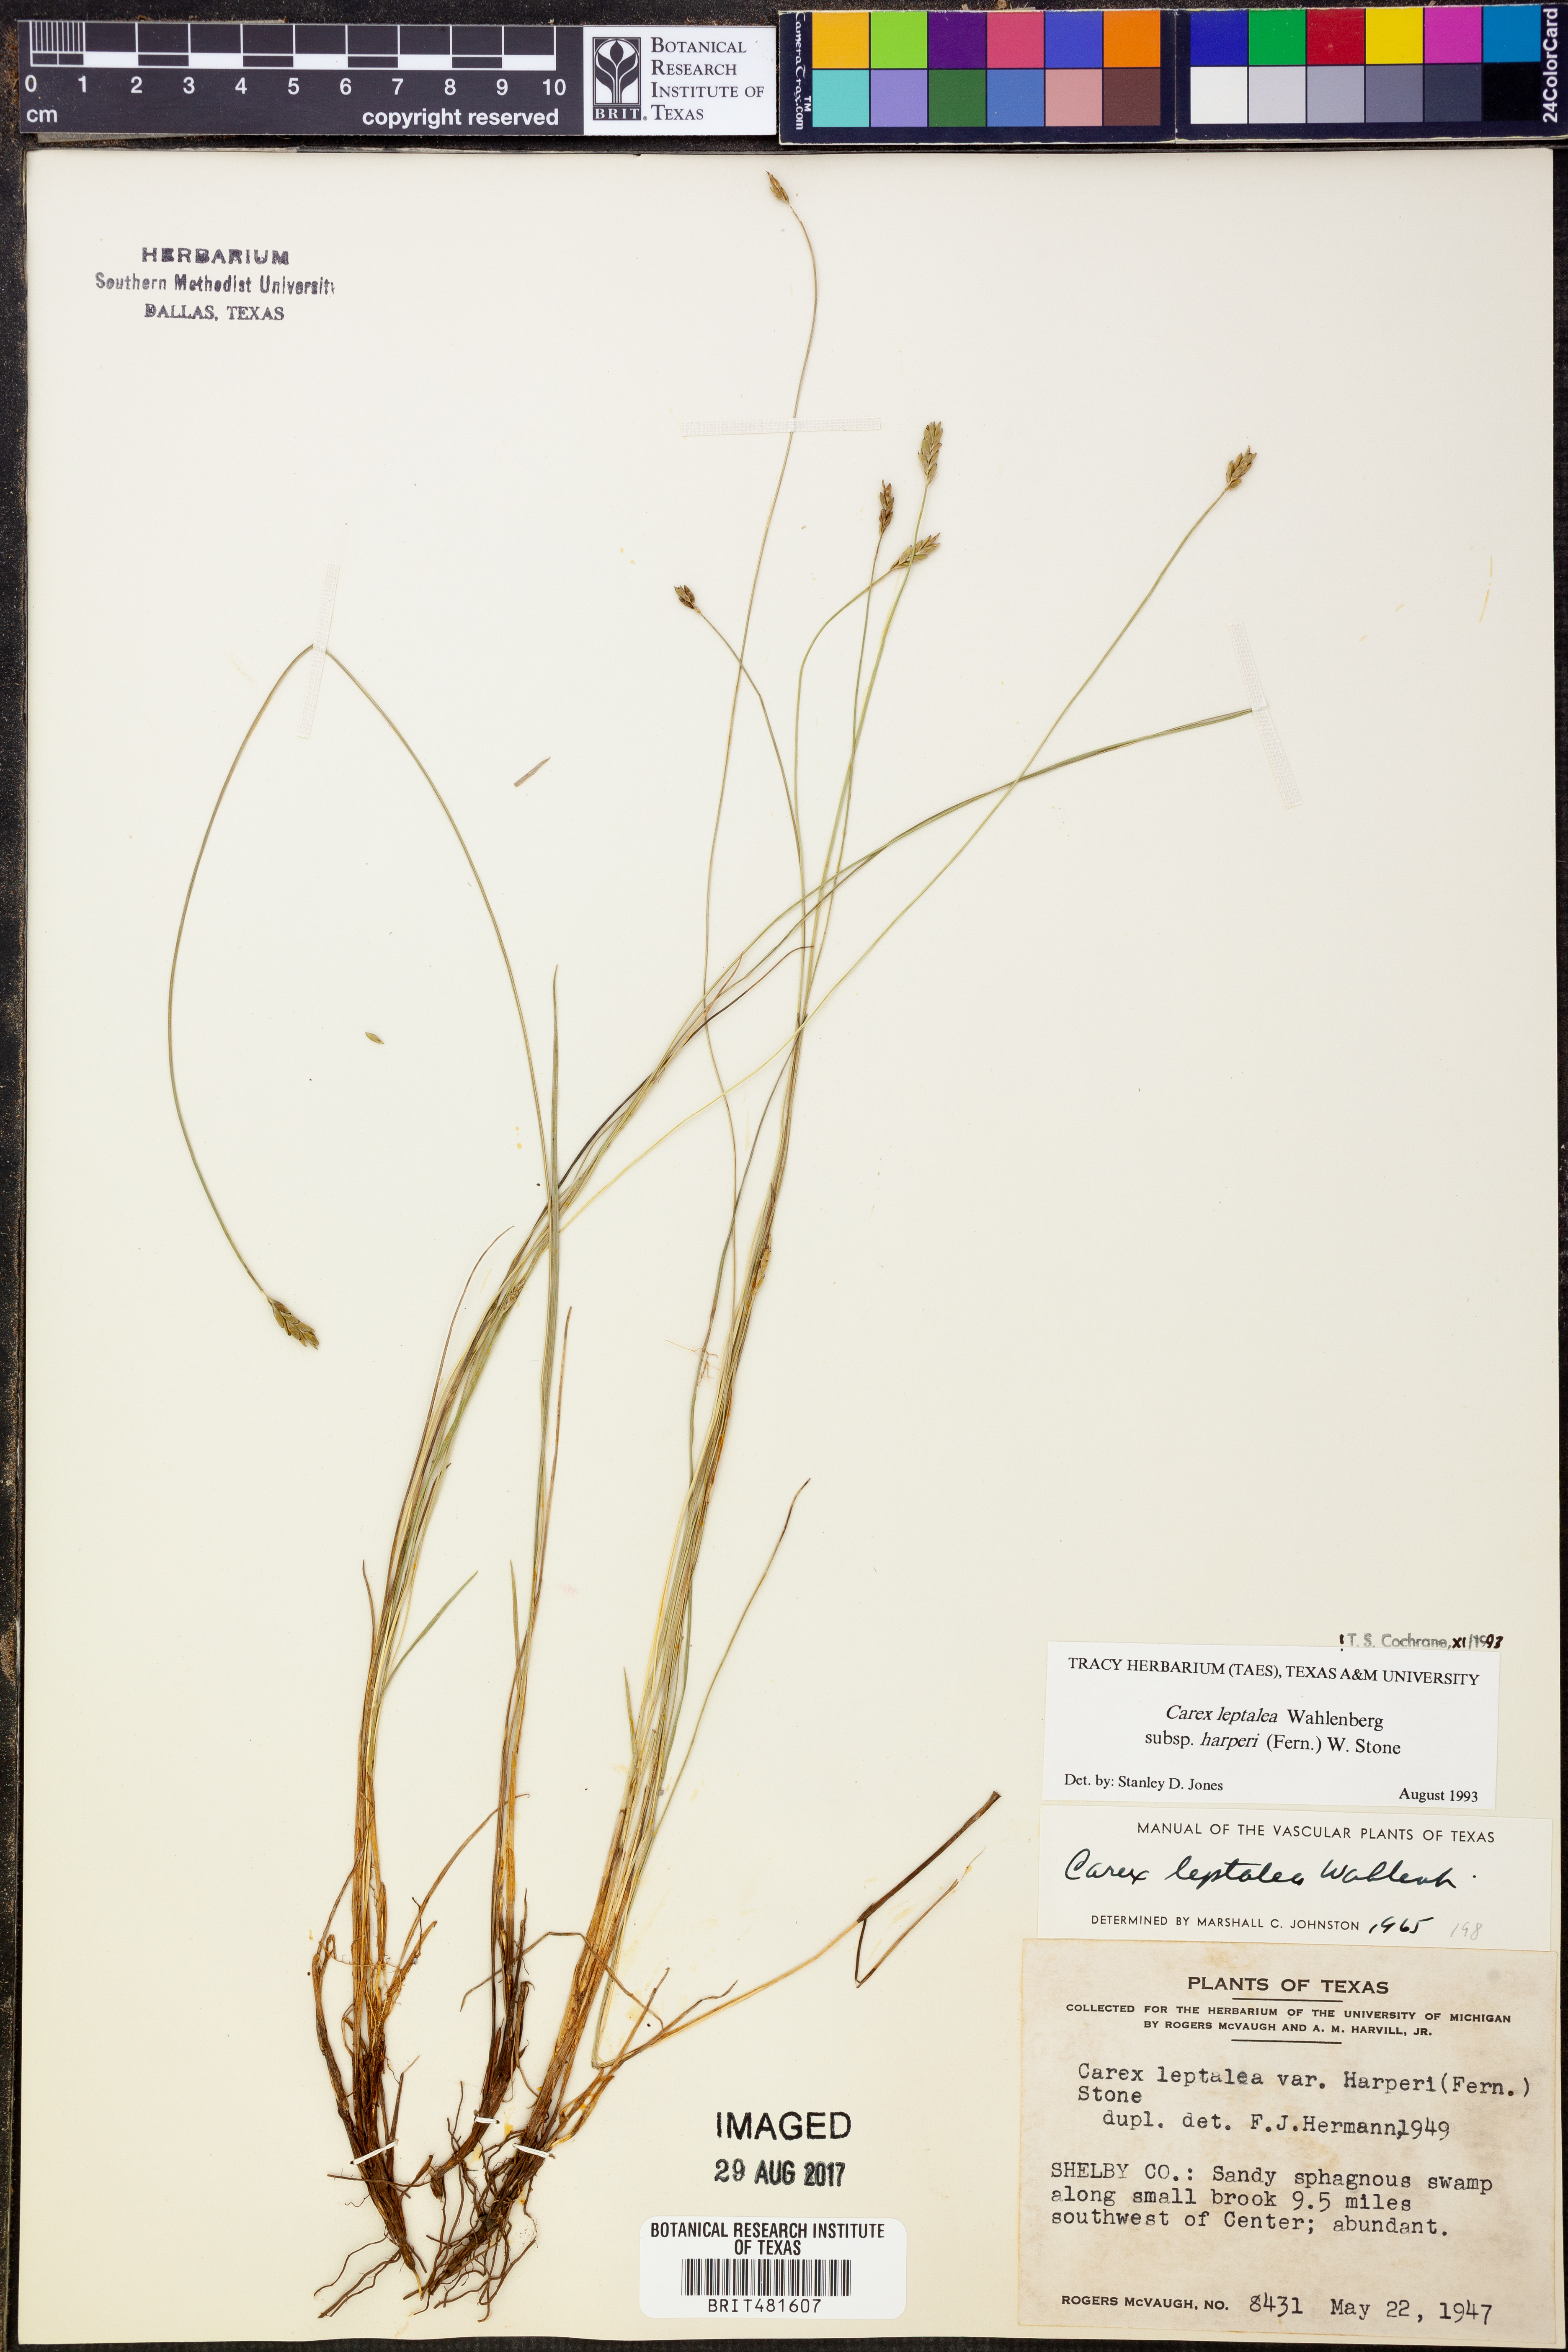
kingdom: Plantae
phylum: Tracheophyta
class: Liliopsida
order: Poales
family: Cyperaceae
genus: Carex
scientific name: Carex leptalea
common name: Bristly-stalked sedge
